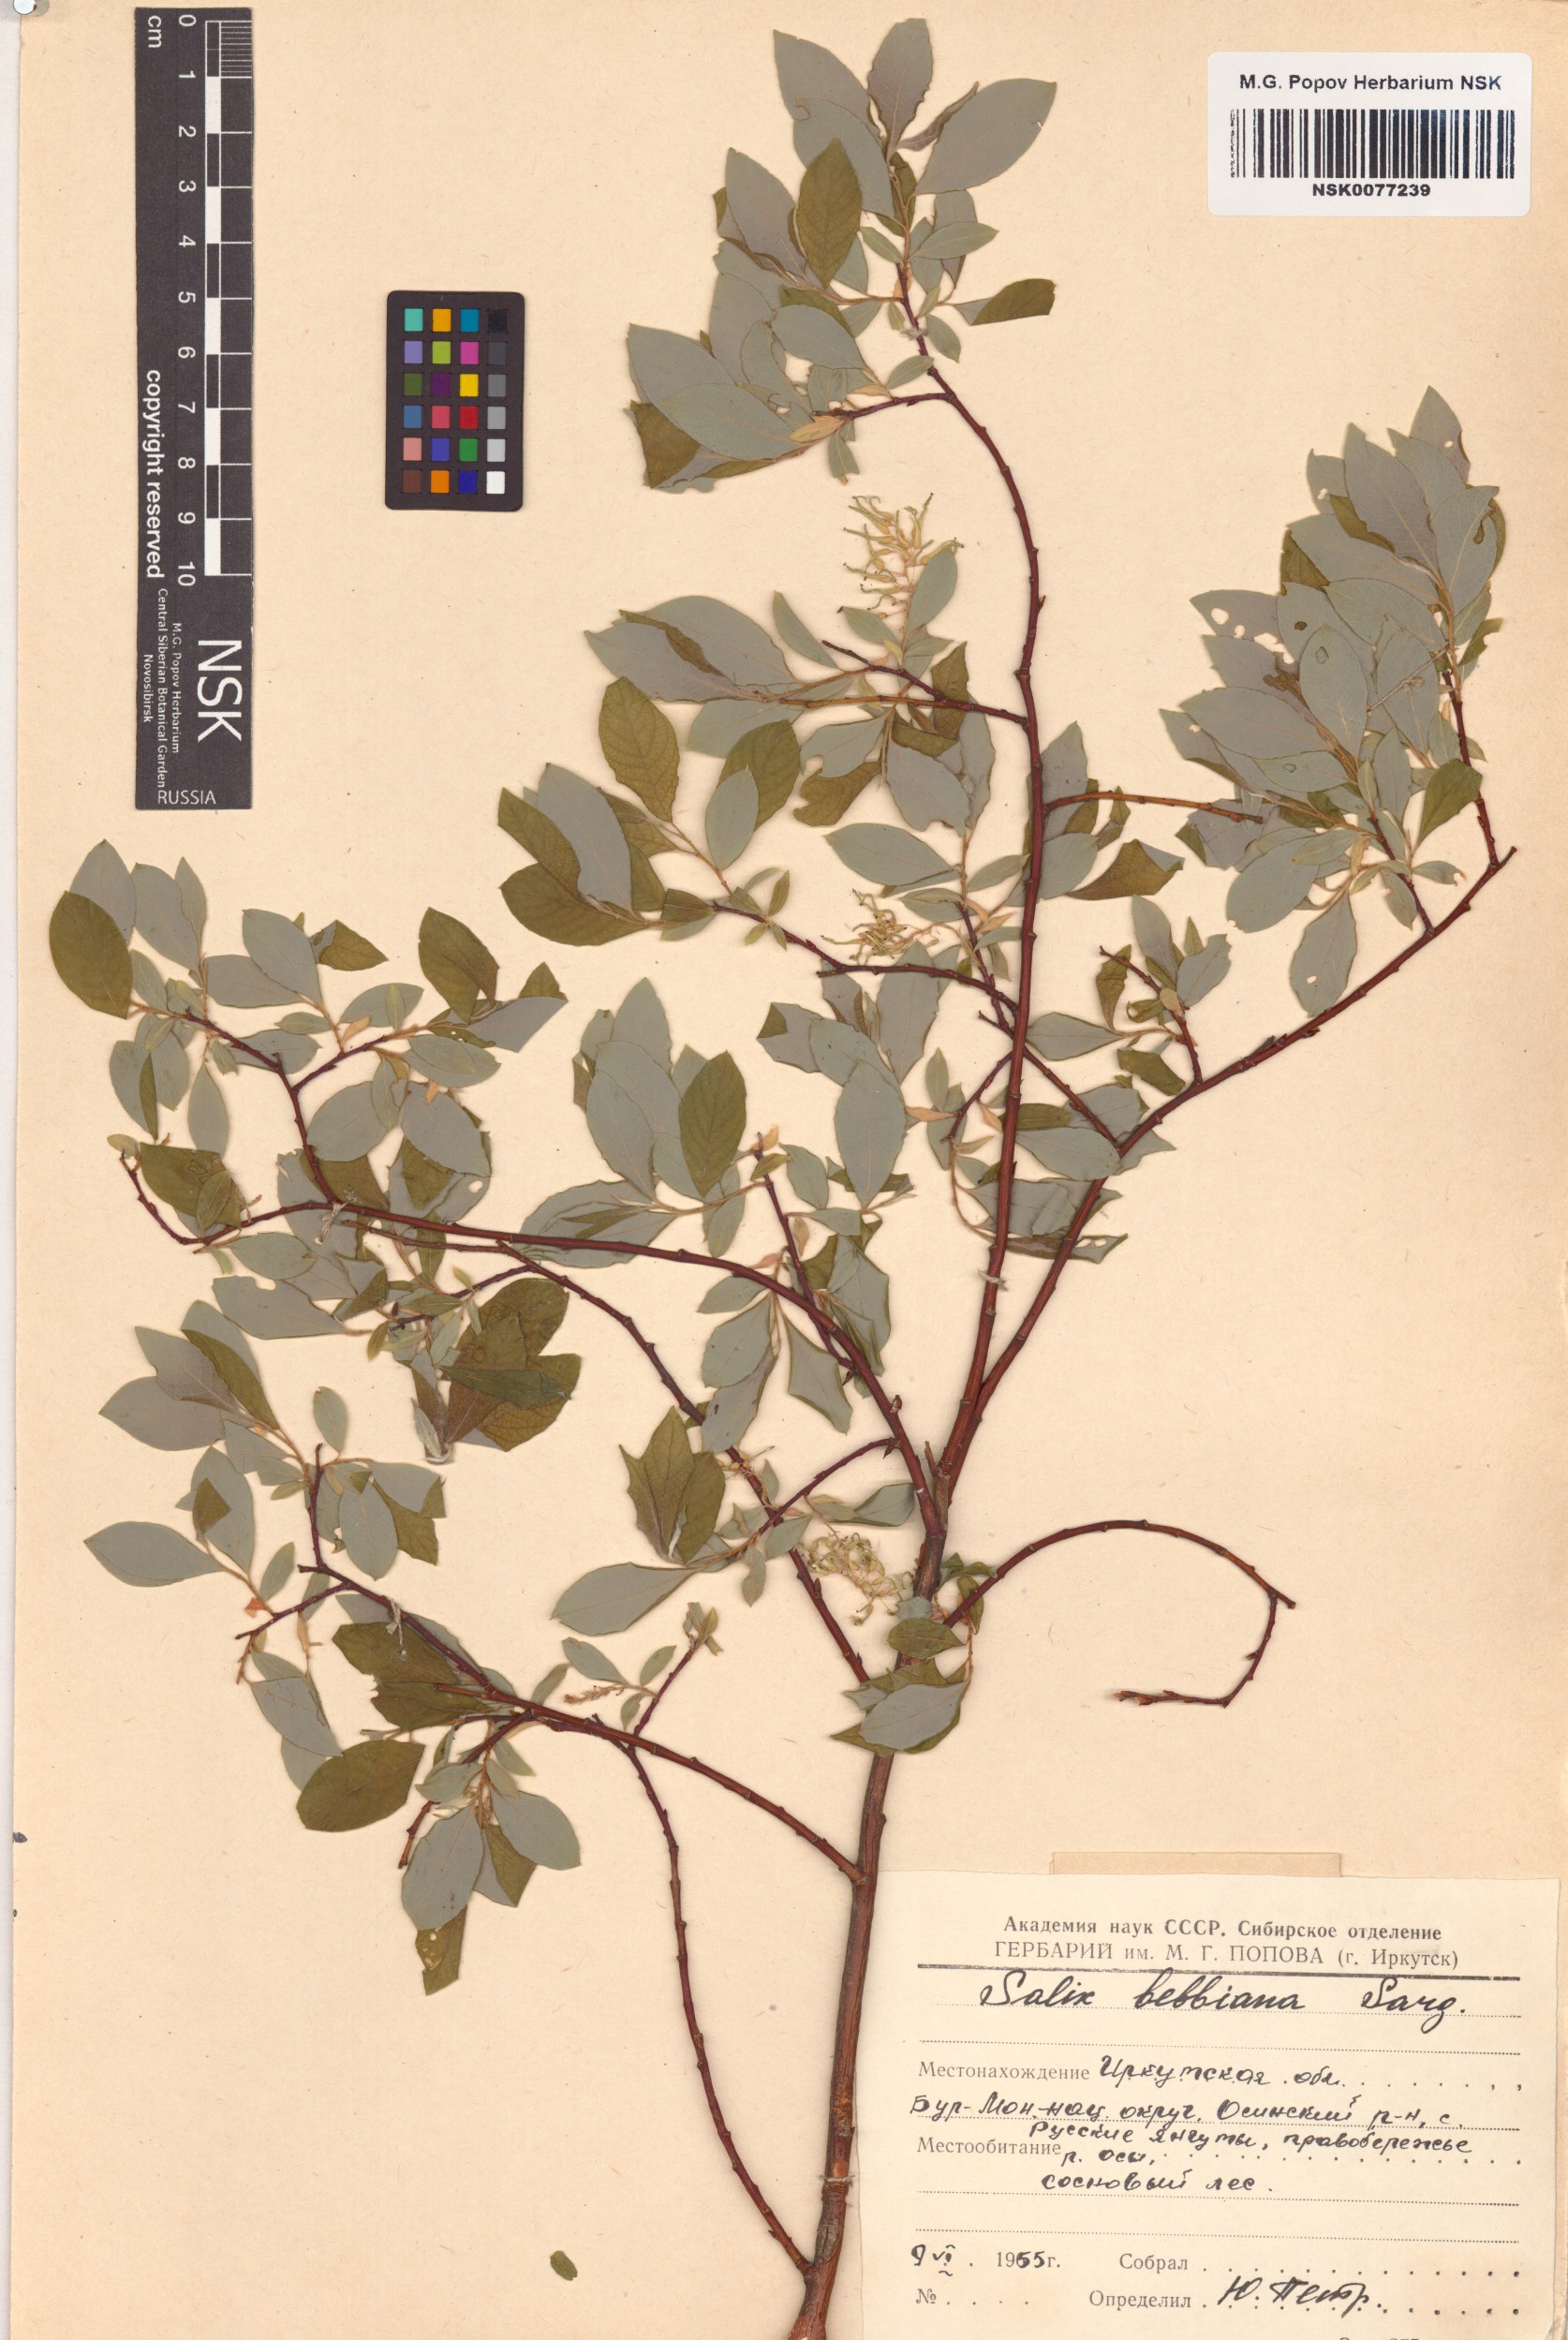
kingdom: Plantae
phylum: Tracheophyta
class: Magnoliopsida
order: Malpighiales
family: Salicaceae
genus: Salix
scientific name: Salix bebbiana
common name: Bebb's willow
